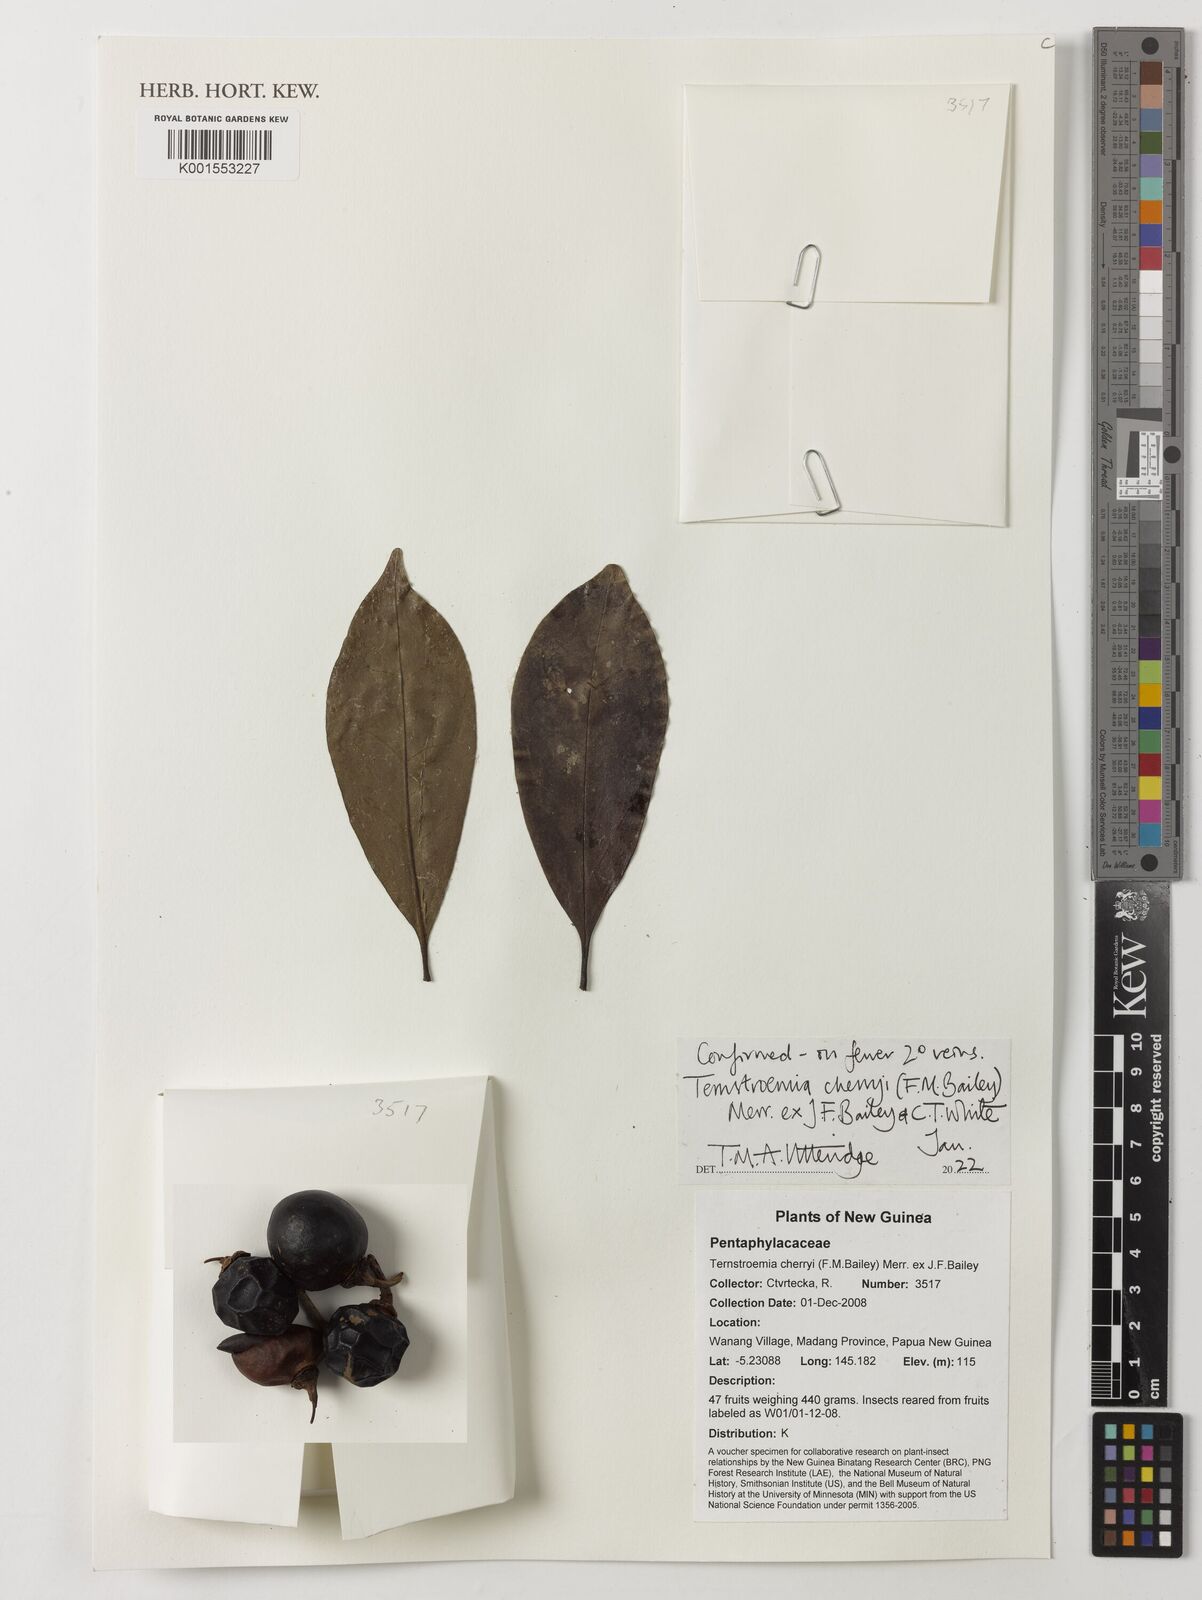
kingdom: Plantae
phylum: Tracheophyta
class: Magnoliopsida
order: Ericales
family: Pentaphylacaceae
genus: Ternstroemia
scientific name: Ternstroemia cherryi
